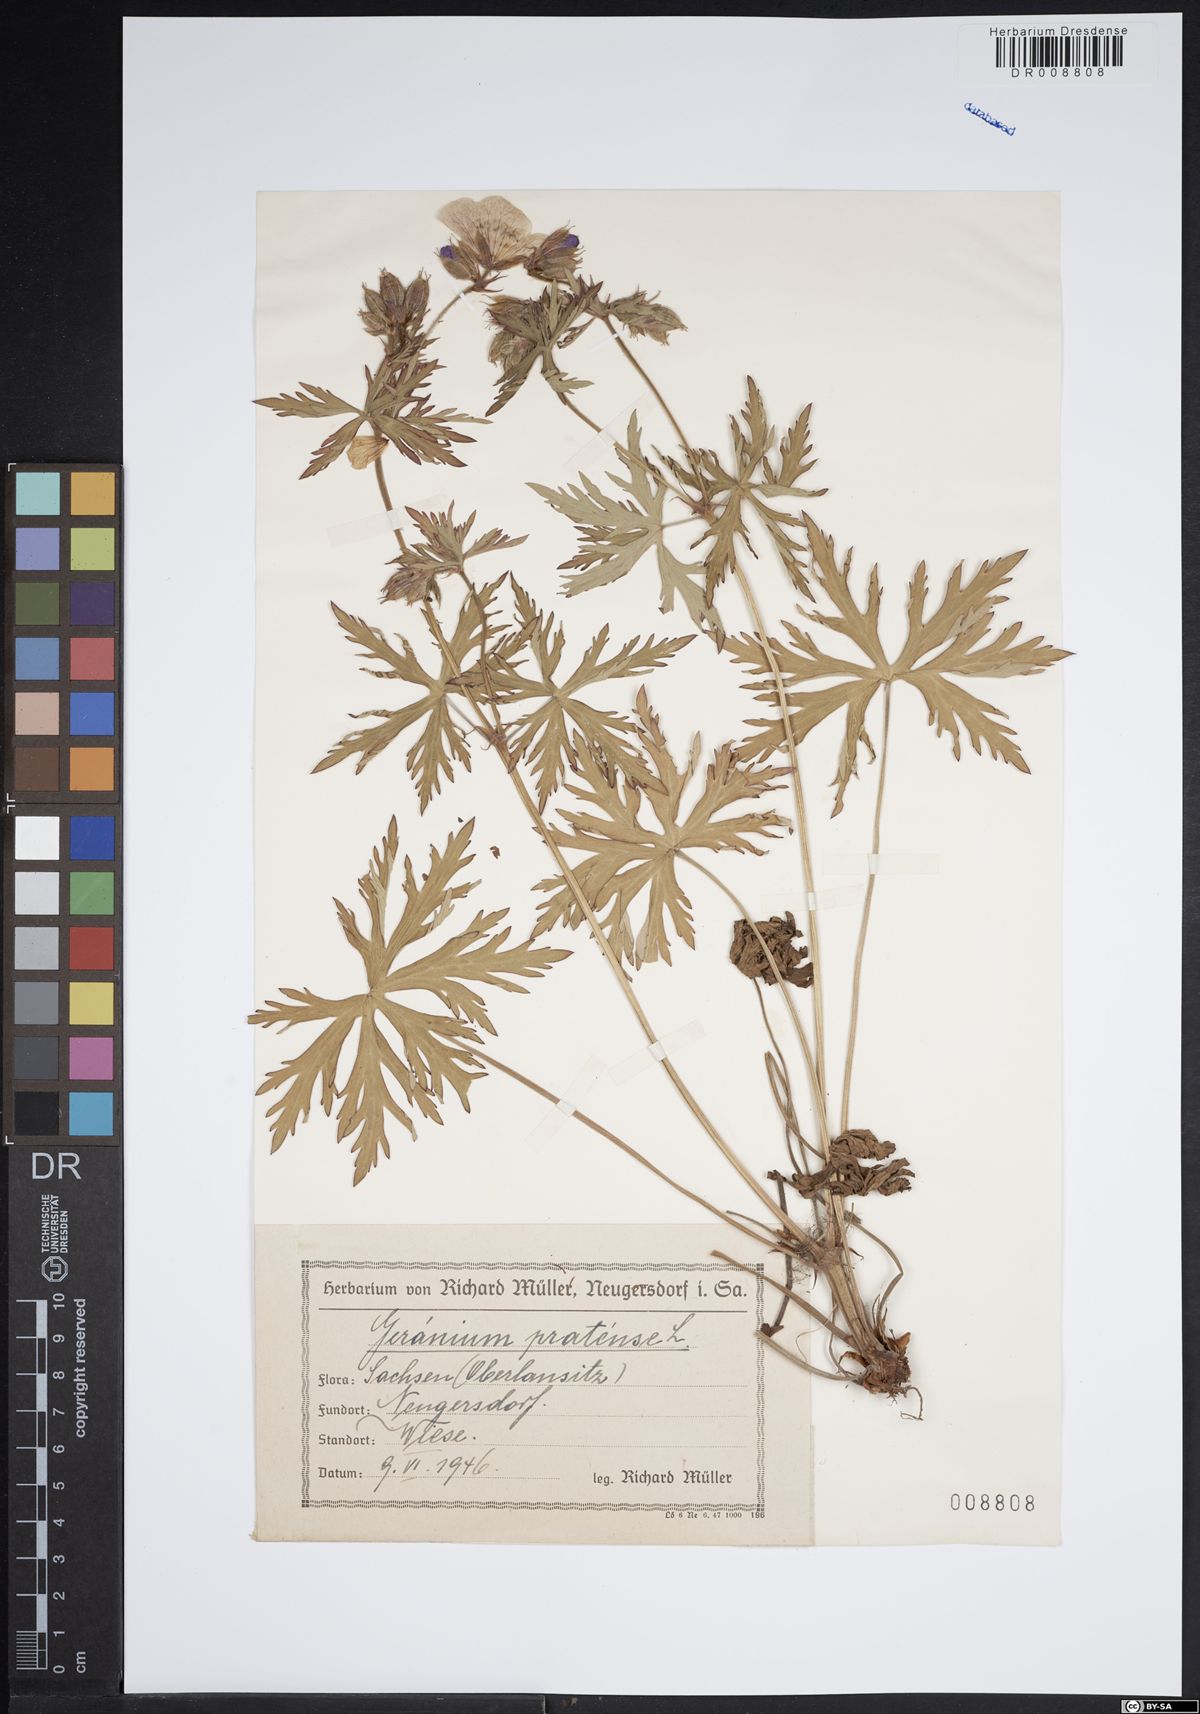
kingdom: Plantae
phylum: Tracheophyta
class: Magnoliopsida
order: Geraniales
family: Geraniaceae
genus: Geranium
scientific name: Geranium pratense
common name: Meadow crane's-bill
